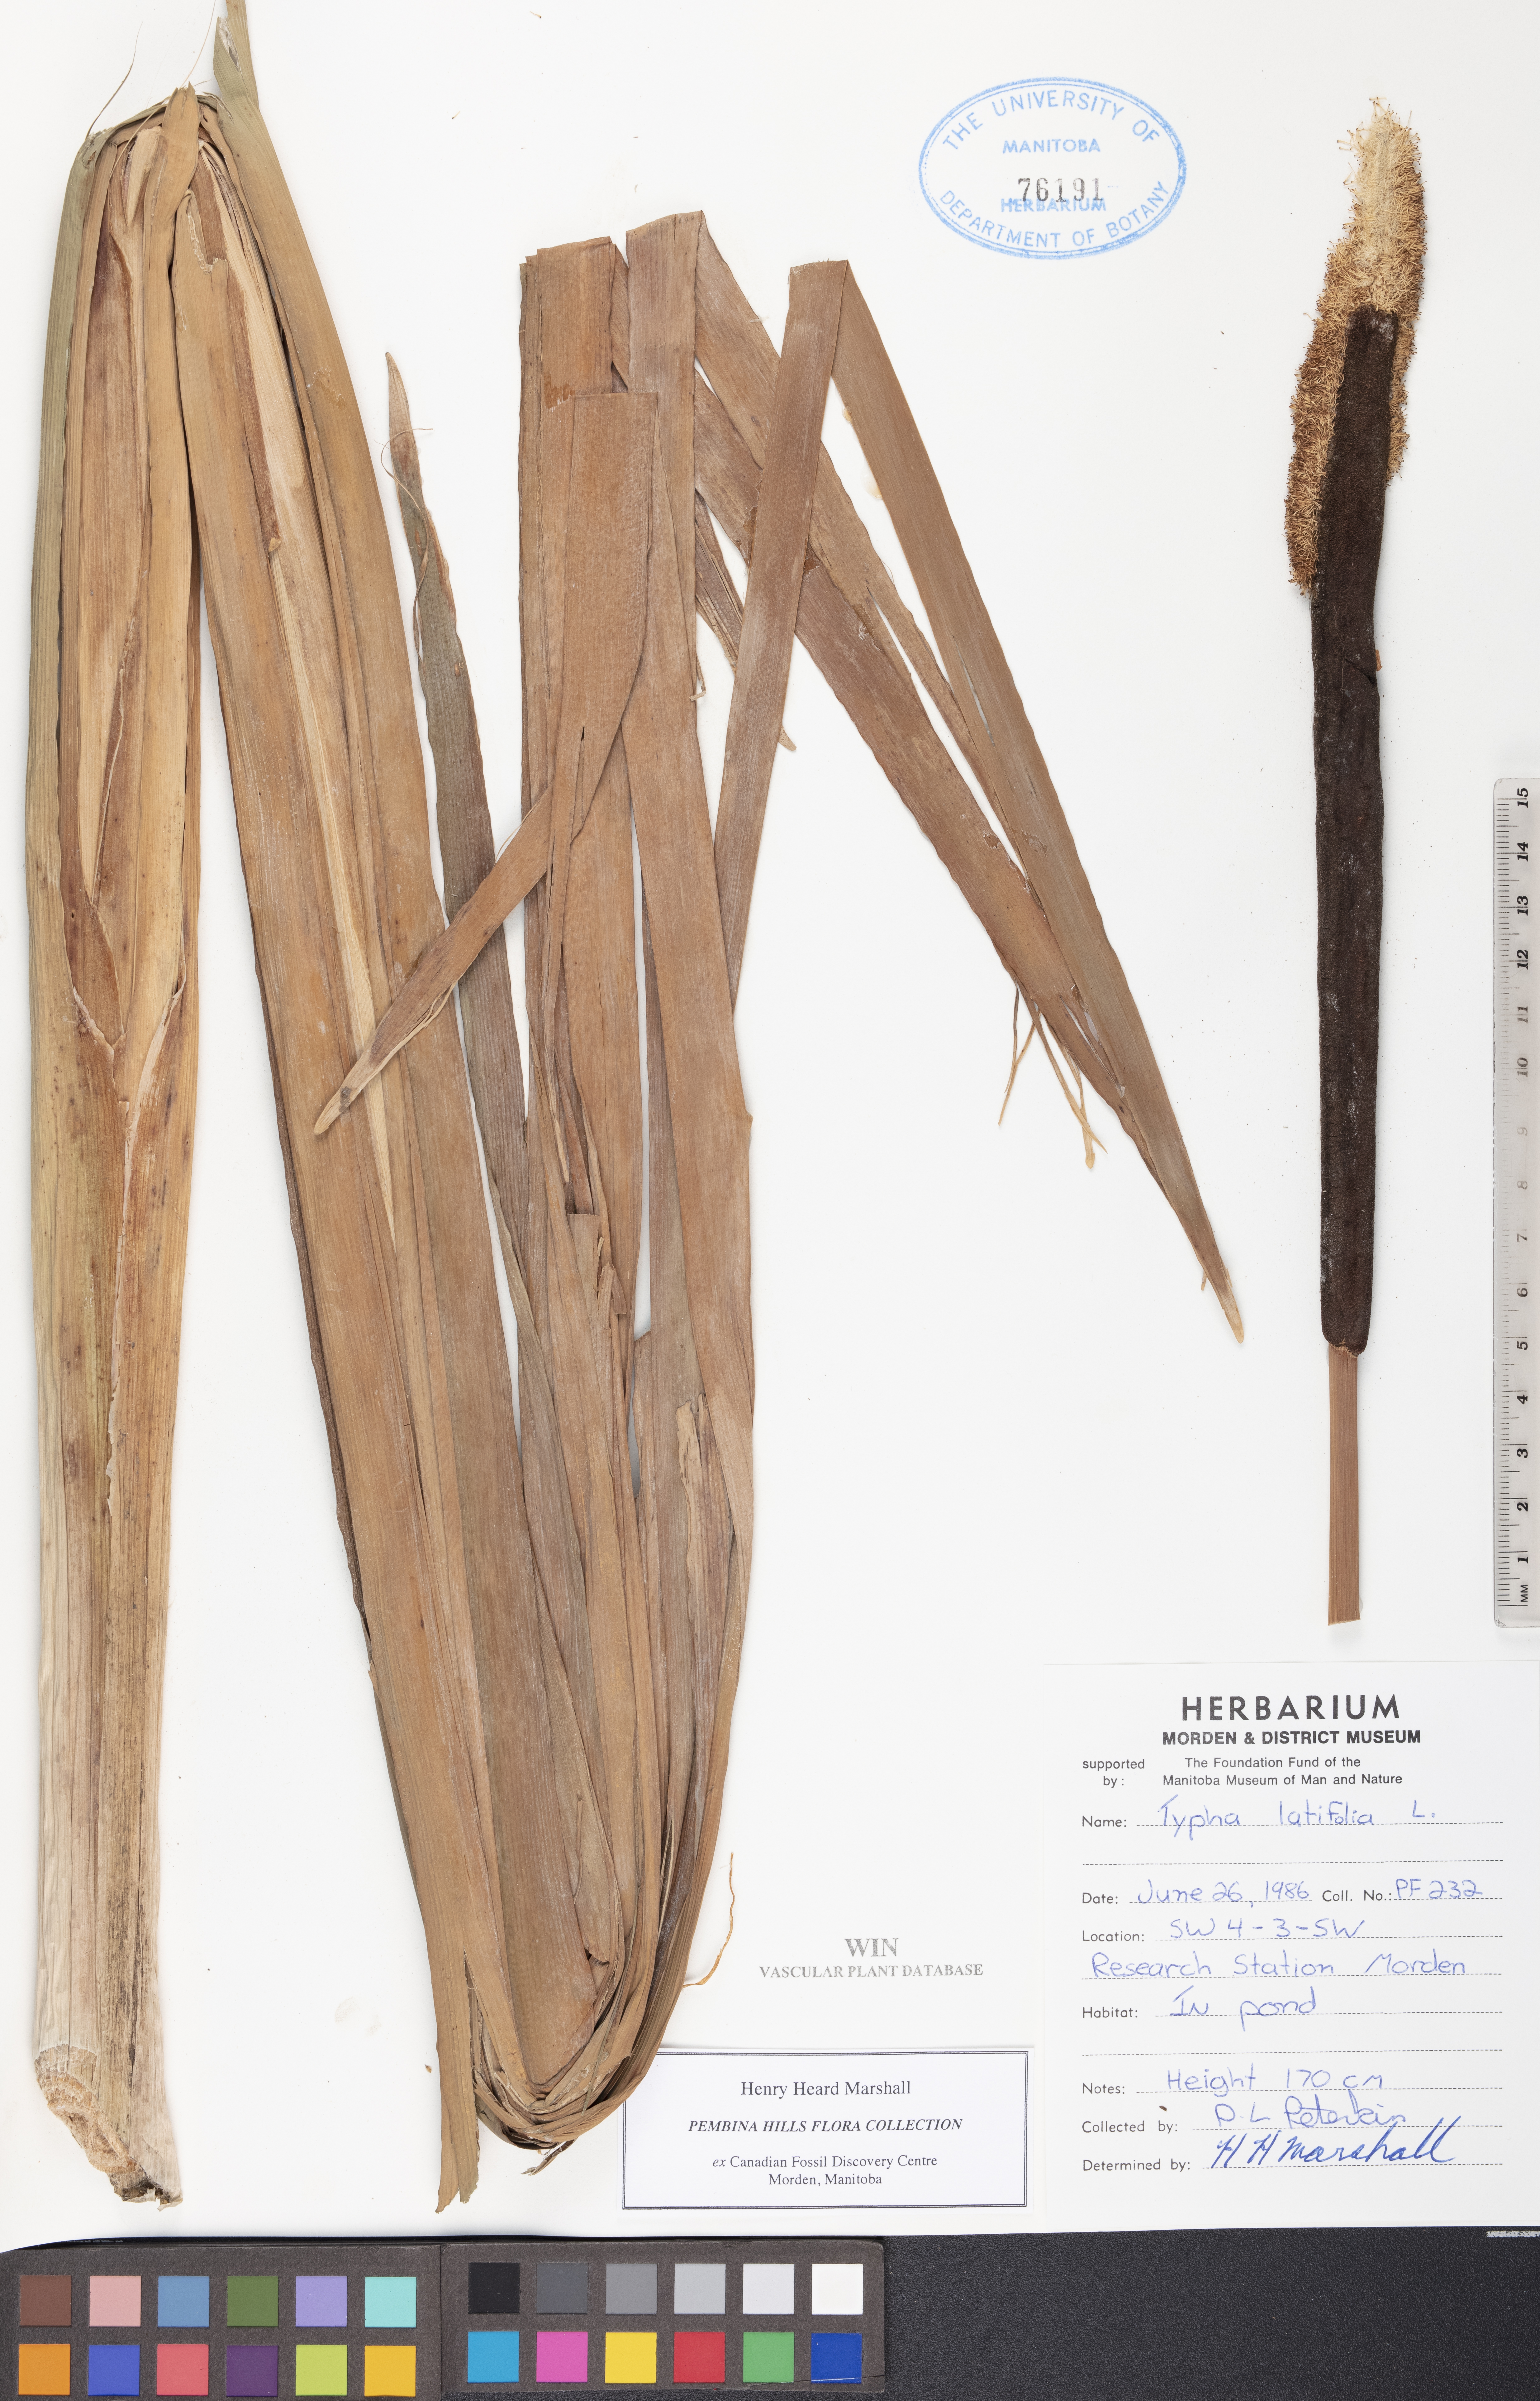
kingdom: Plantae
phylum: Tracheophyta
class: Liliopsida
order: Poales
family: Typhaceae
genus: Typha
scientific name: Typha latifolia
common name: Broadleaf cattail
